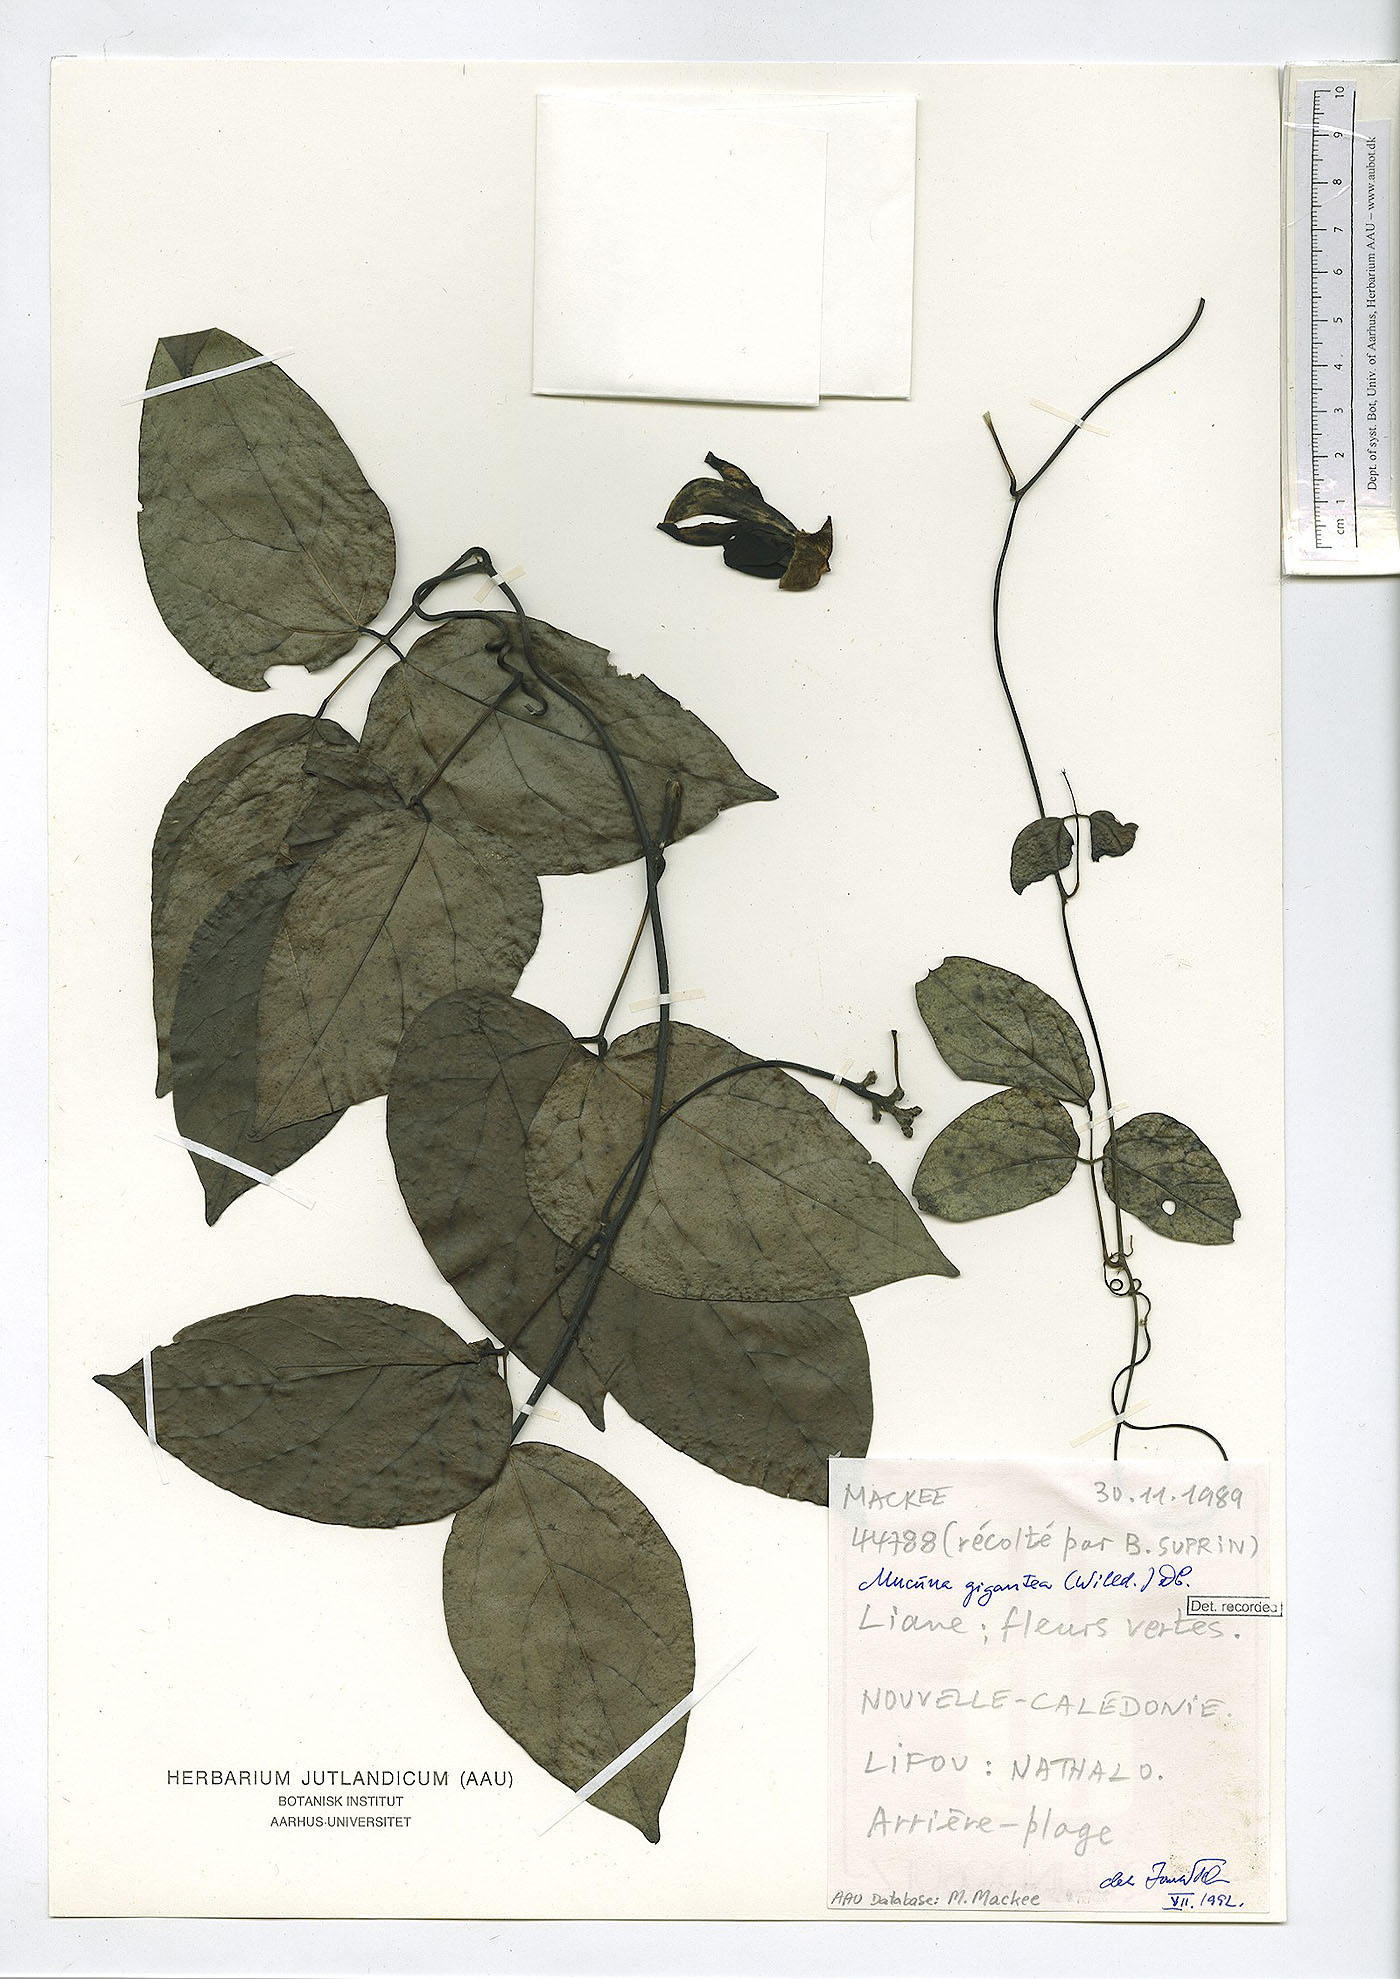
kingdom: Plantae
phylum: Tracheophyta
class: Magnoliopsida
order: Fabales
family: Fabaceae
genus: Mucuna
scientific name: Mucuna gigantea
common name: Black-bean
